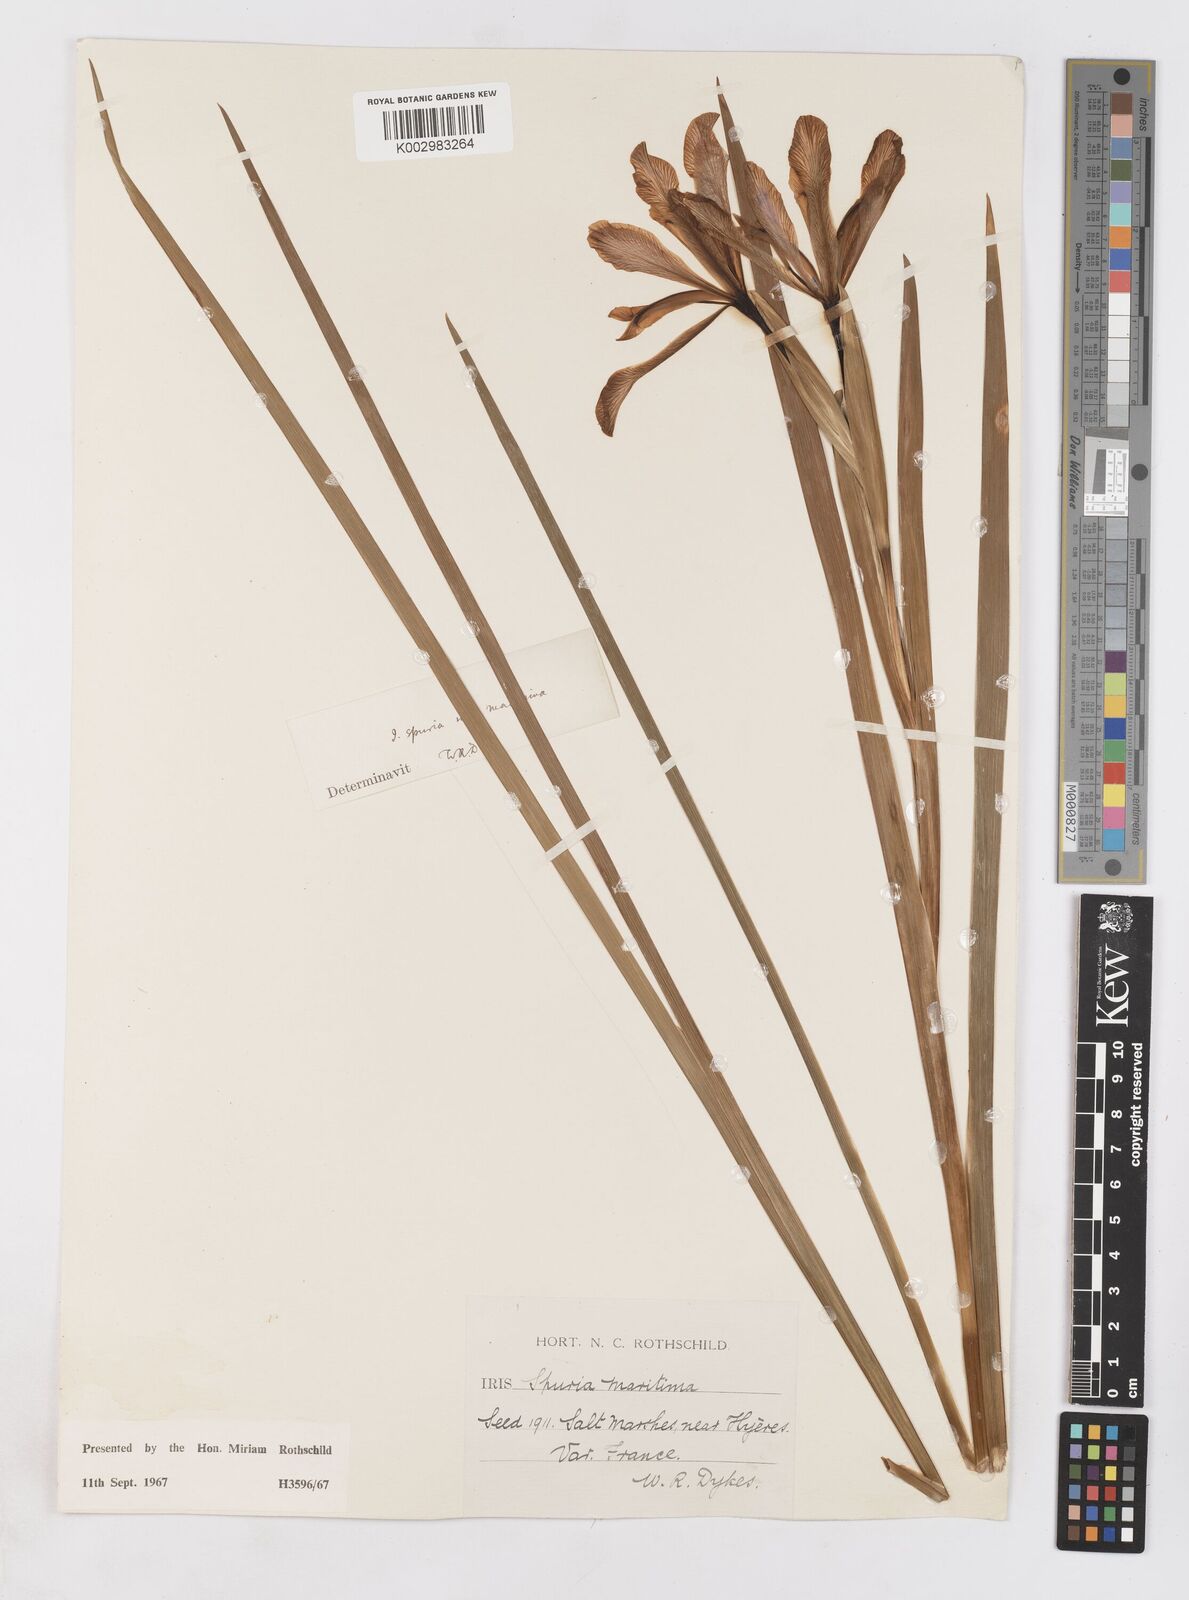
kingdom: Plantae
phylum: Tracheophyta
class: Liliopsida
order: Asparagales
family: Iridaceae
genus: Iris
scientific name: Iris spuria
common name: Blue iris
